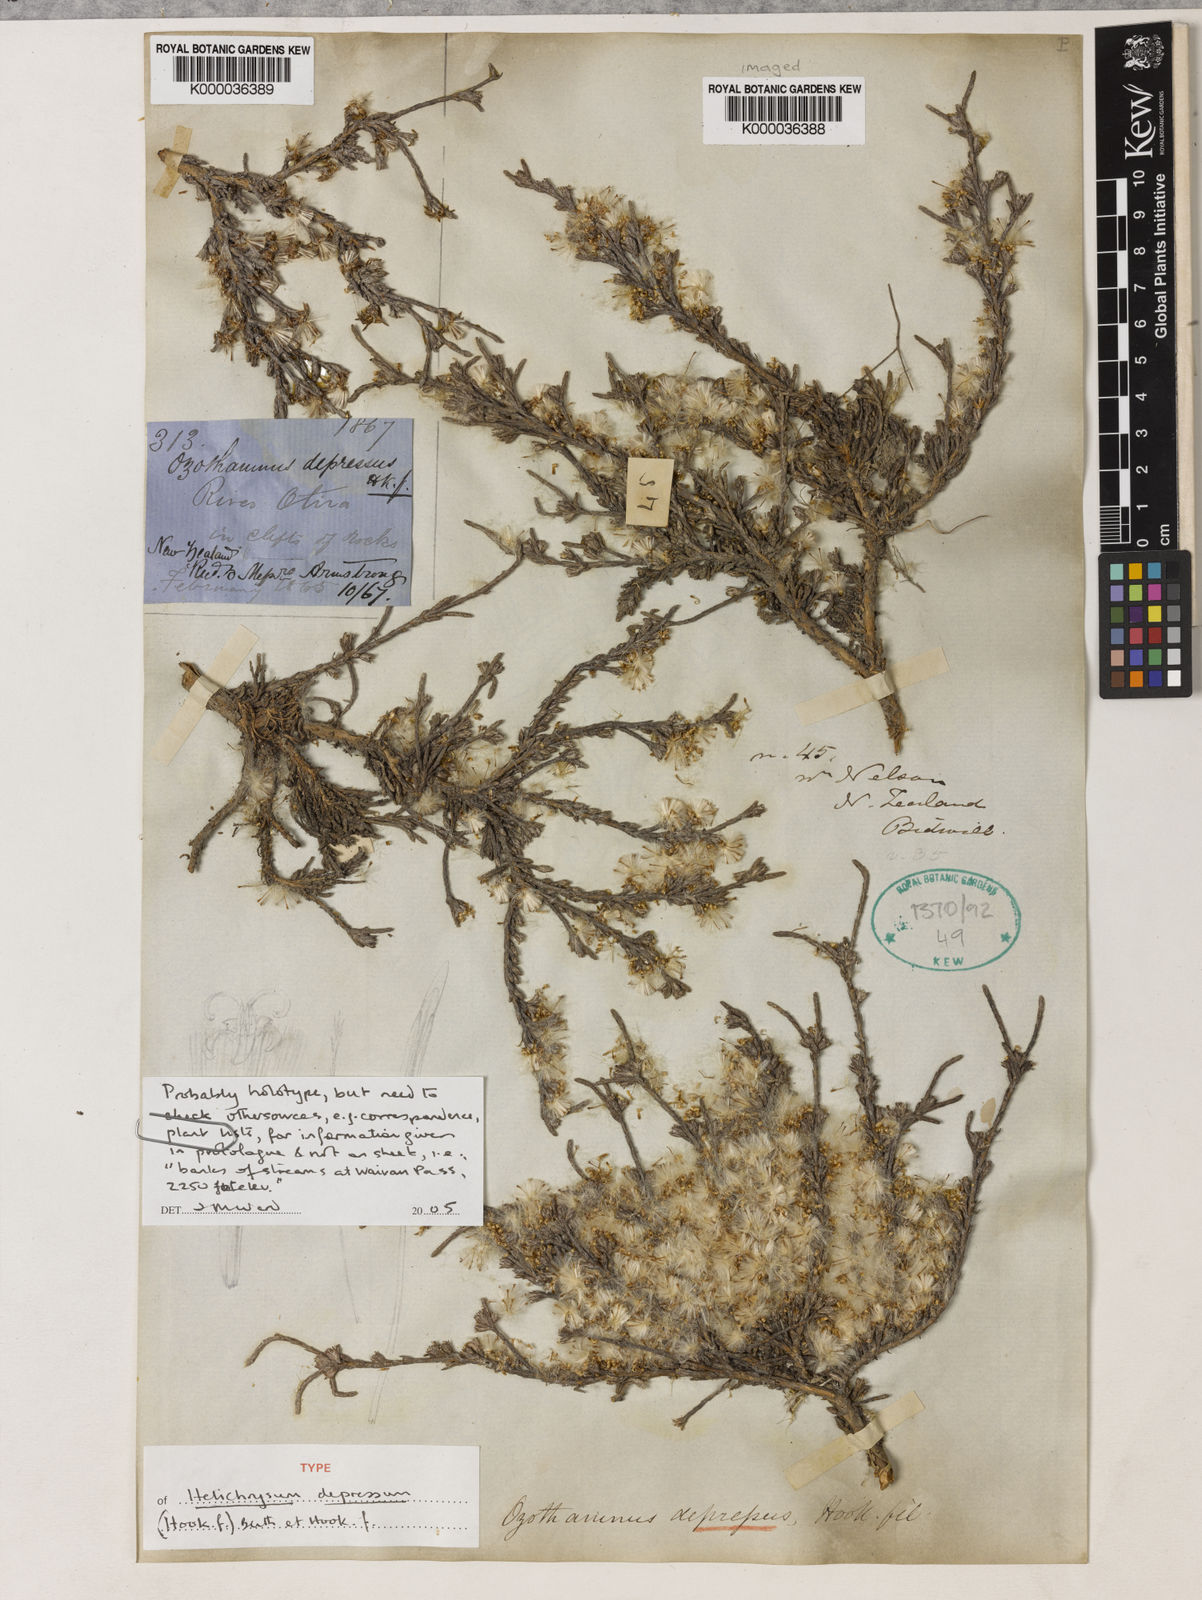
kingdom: Plantae
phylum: Tracheophyta
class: Magnoliopsida
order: Asterales
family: Asteraceae
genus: Ozothamnus
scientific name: Ozothamnus depressus
